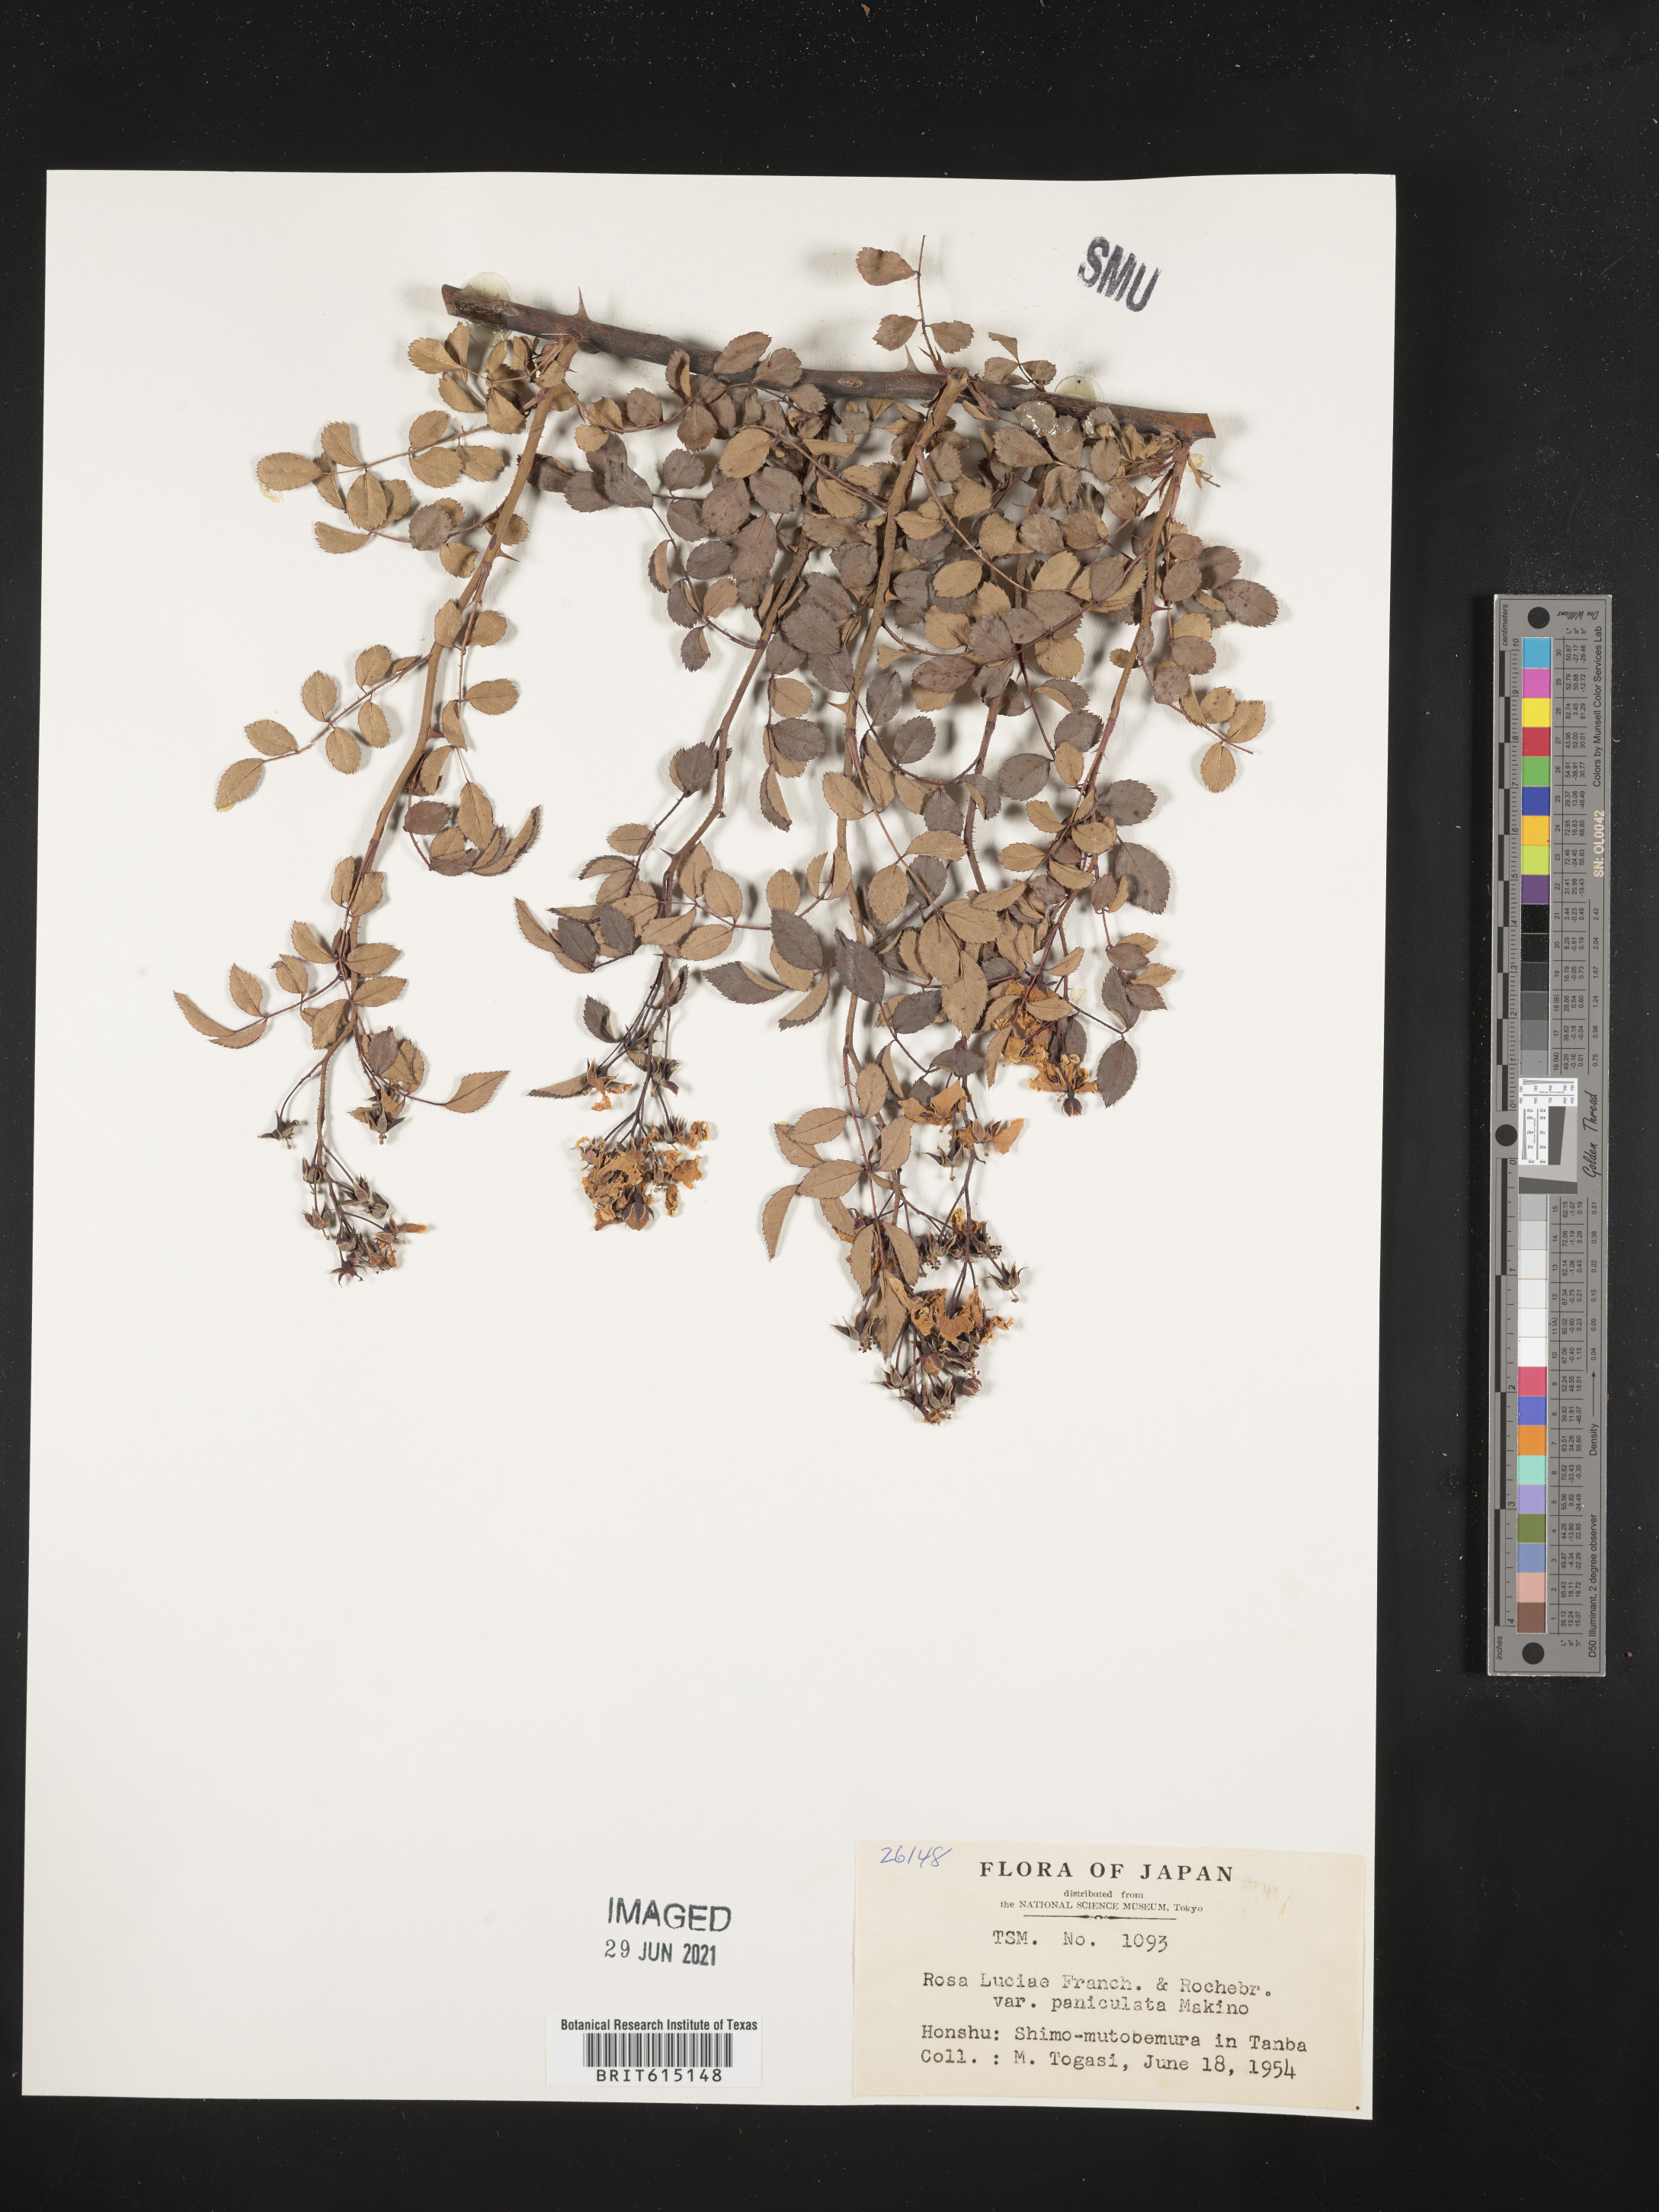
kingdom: Plantae
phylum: Tracheophyta
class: Magnoliopsida
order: Rosales
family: Rosaceae
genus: Rosa
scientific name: Rosa makinoana
